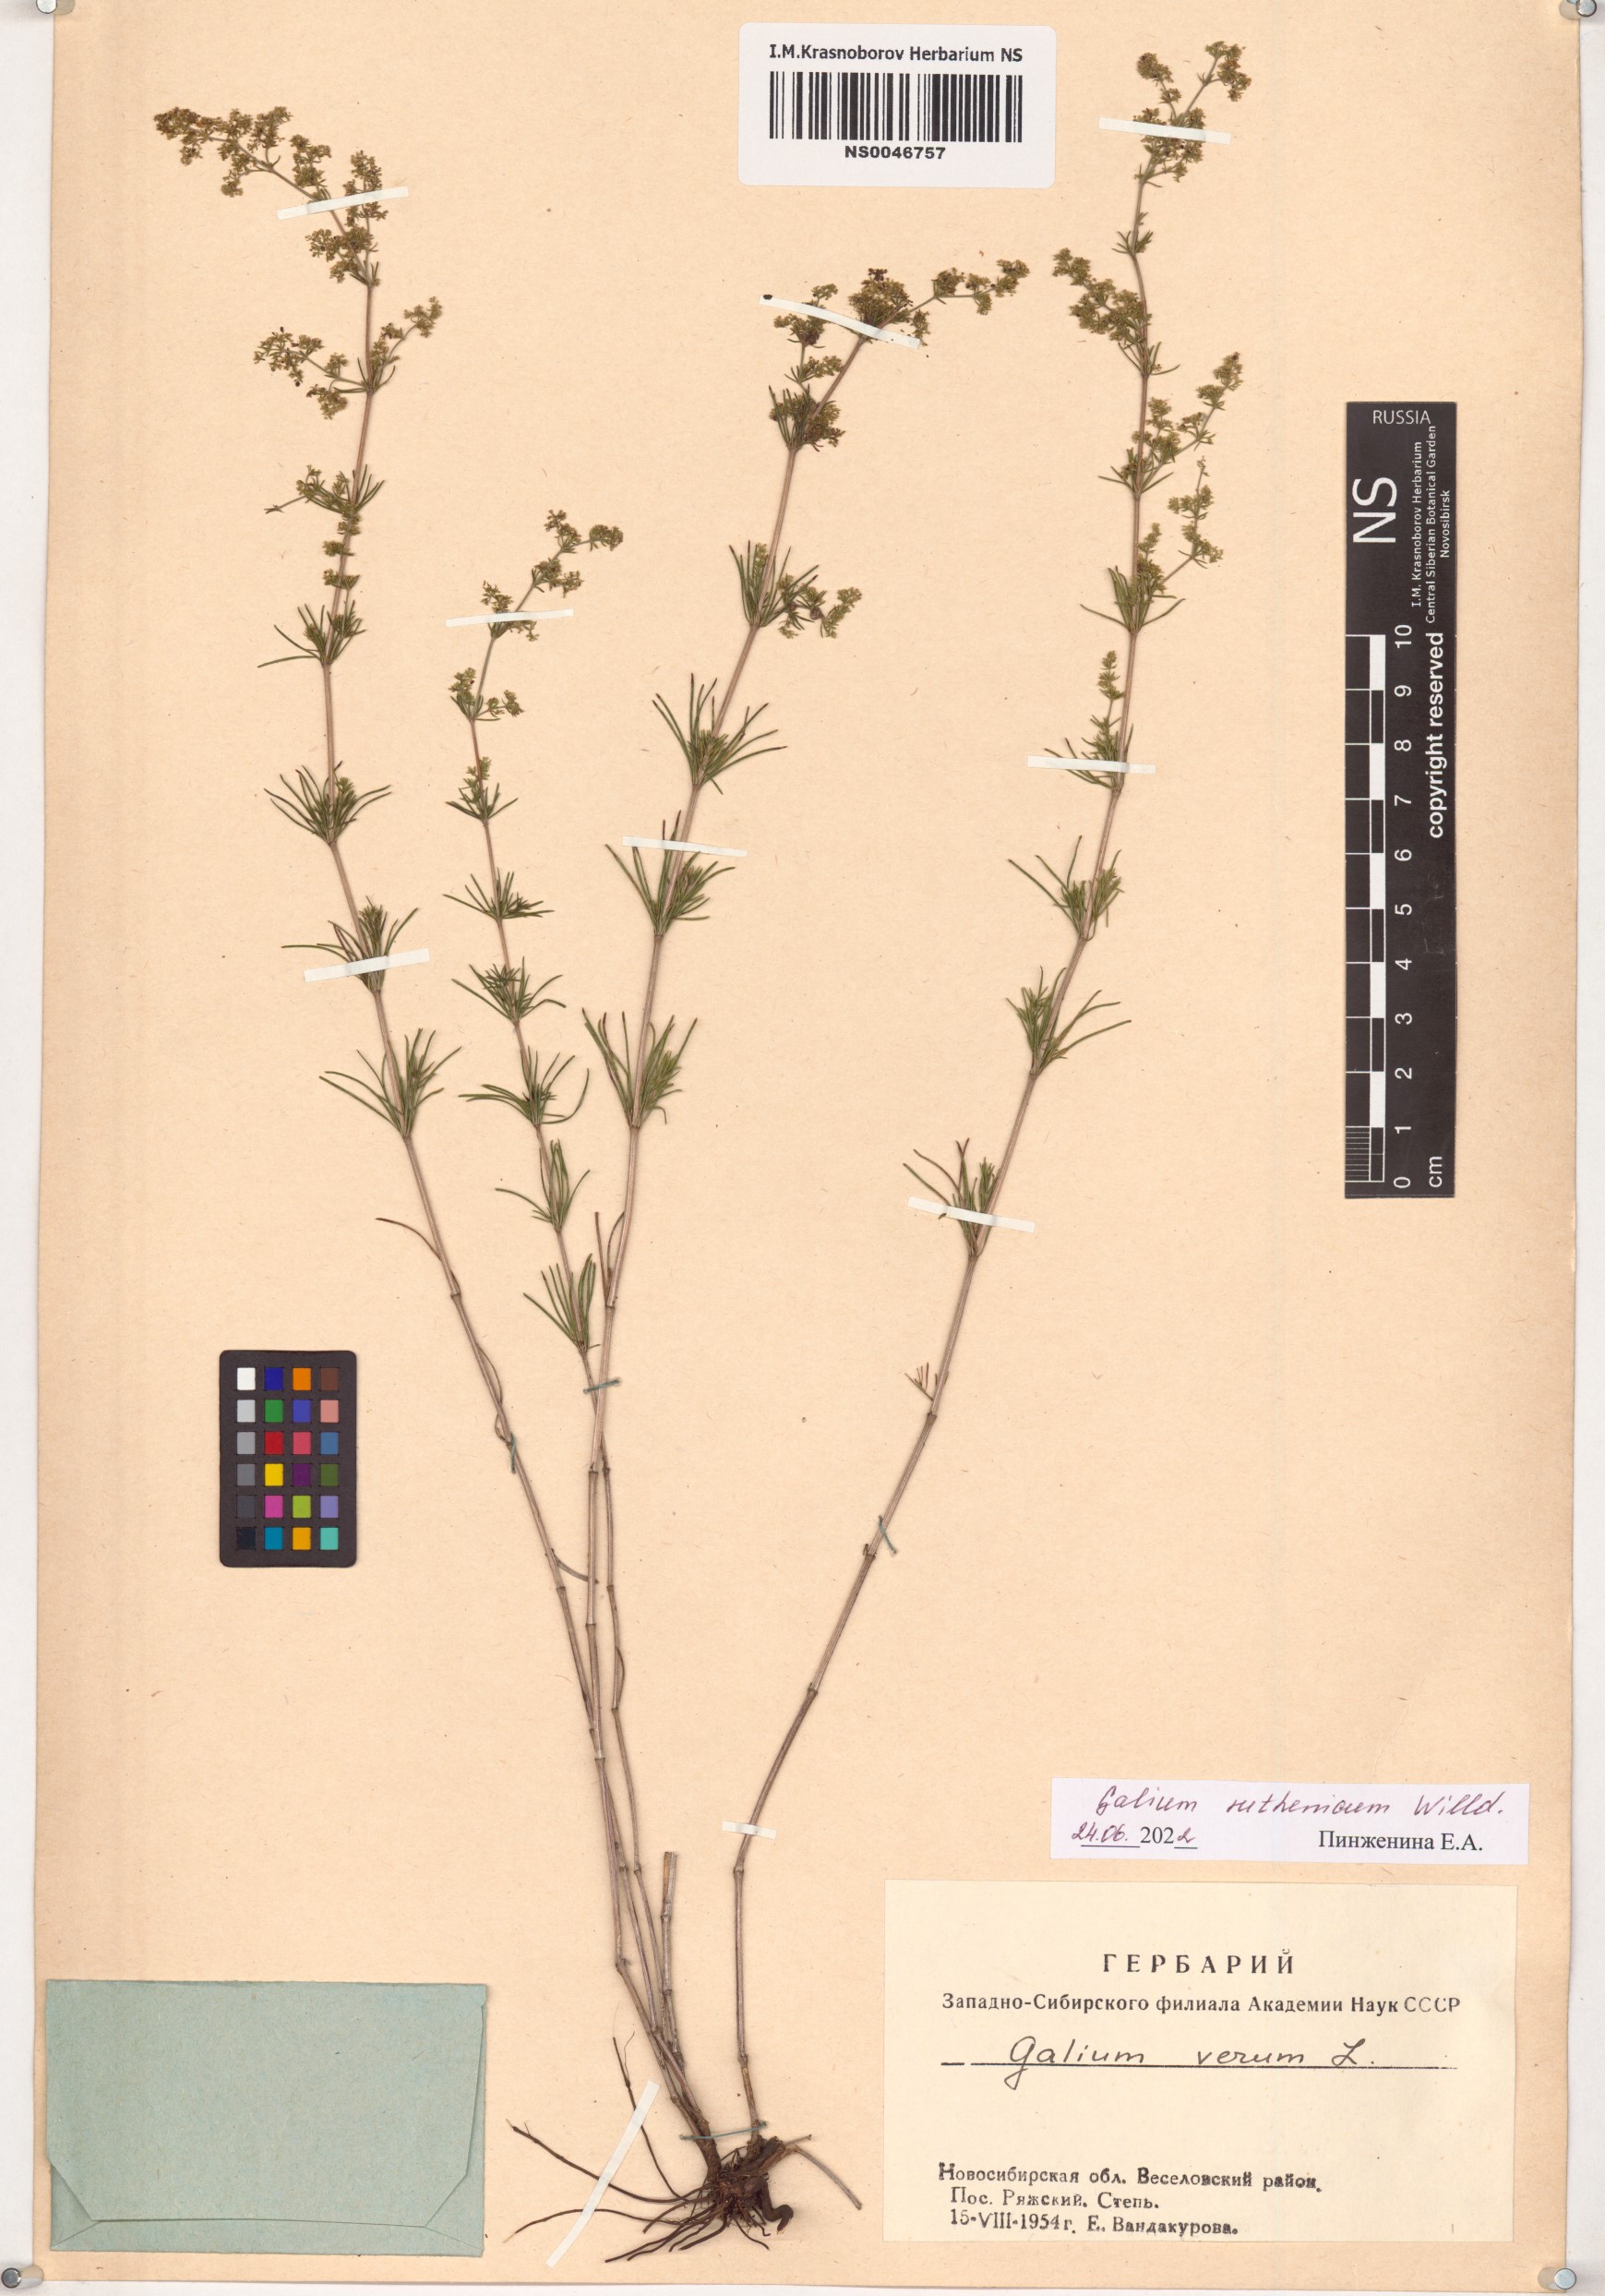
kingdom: Plantae
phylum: Tracheophyta
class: Magnoliopsida
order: Gentianales
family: Rubiaceae
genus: Galium
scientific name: Galium verum
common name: Lady's bedstraw
